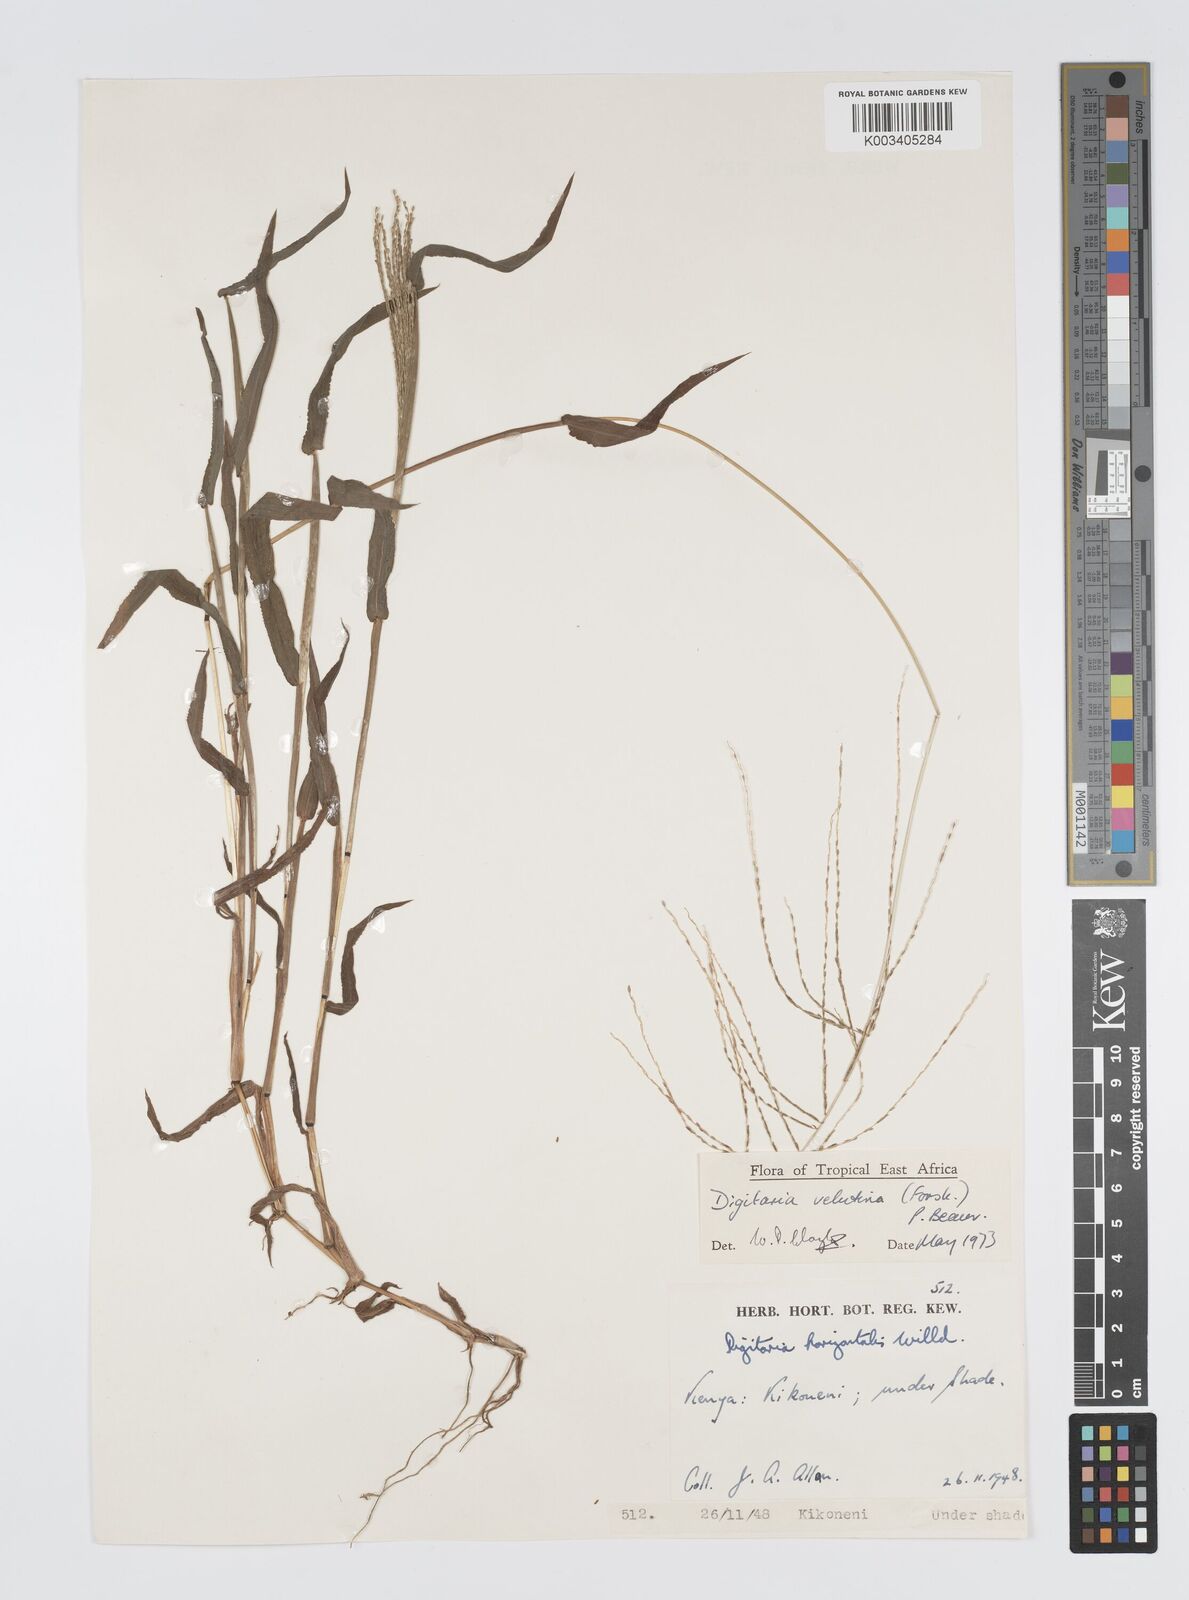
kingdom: Plantae
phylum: Tracheophyta
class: Liliopsida
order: Poales
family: Poaceae
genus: Digitaria
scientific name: Digitaria velutina
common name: Long-plume finger grass
